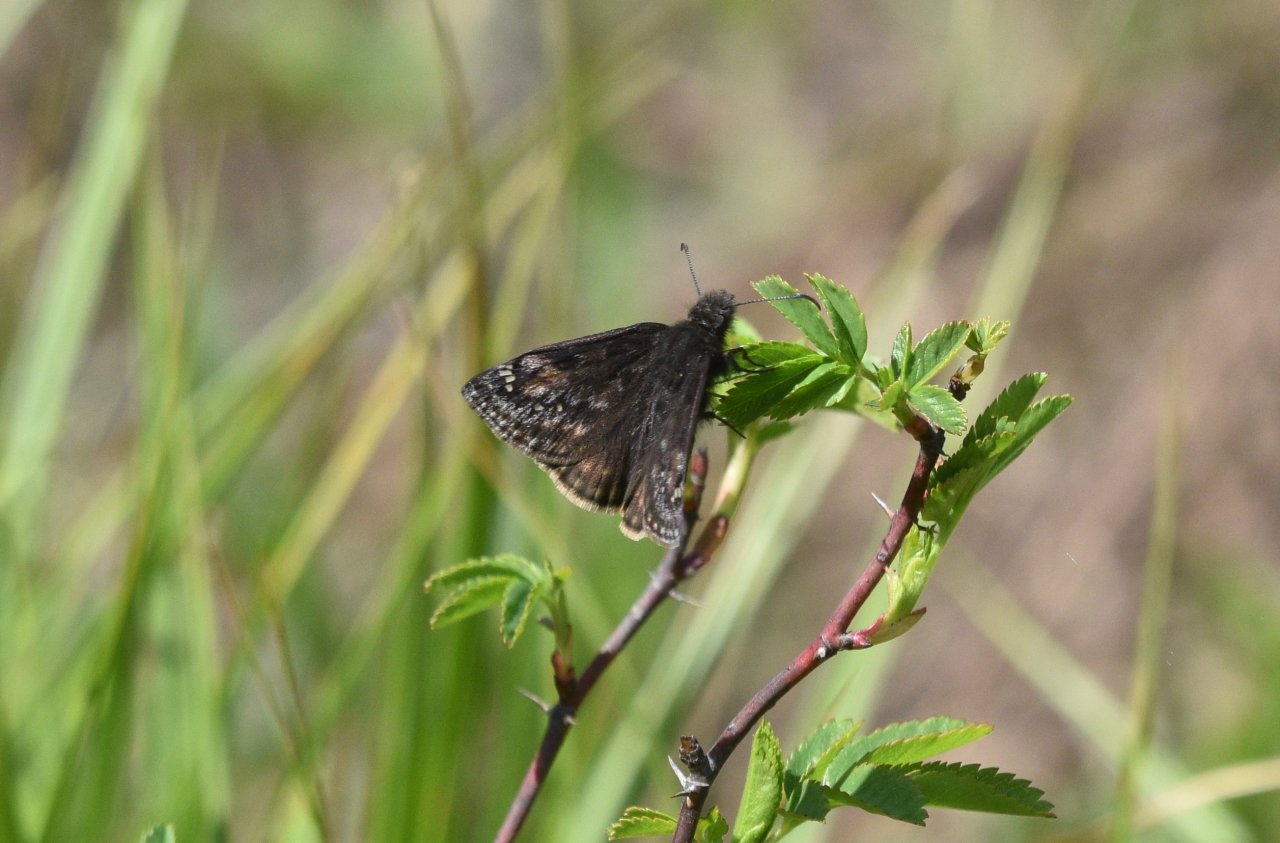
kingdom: Animalia
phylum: Arthropoda
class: Insecta
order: Lepidoptera
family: Hesperiidae
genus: Gesta
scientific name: Gesta
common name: Juvenal's Duskywing
